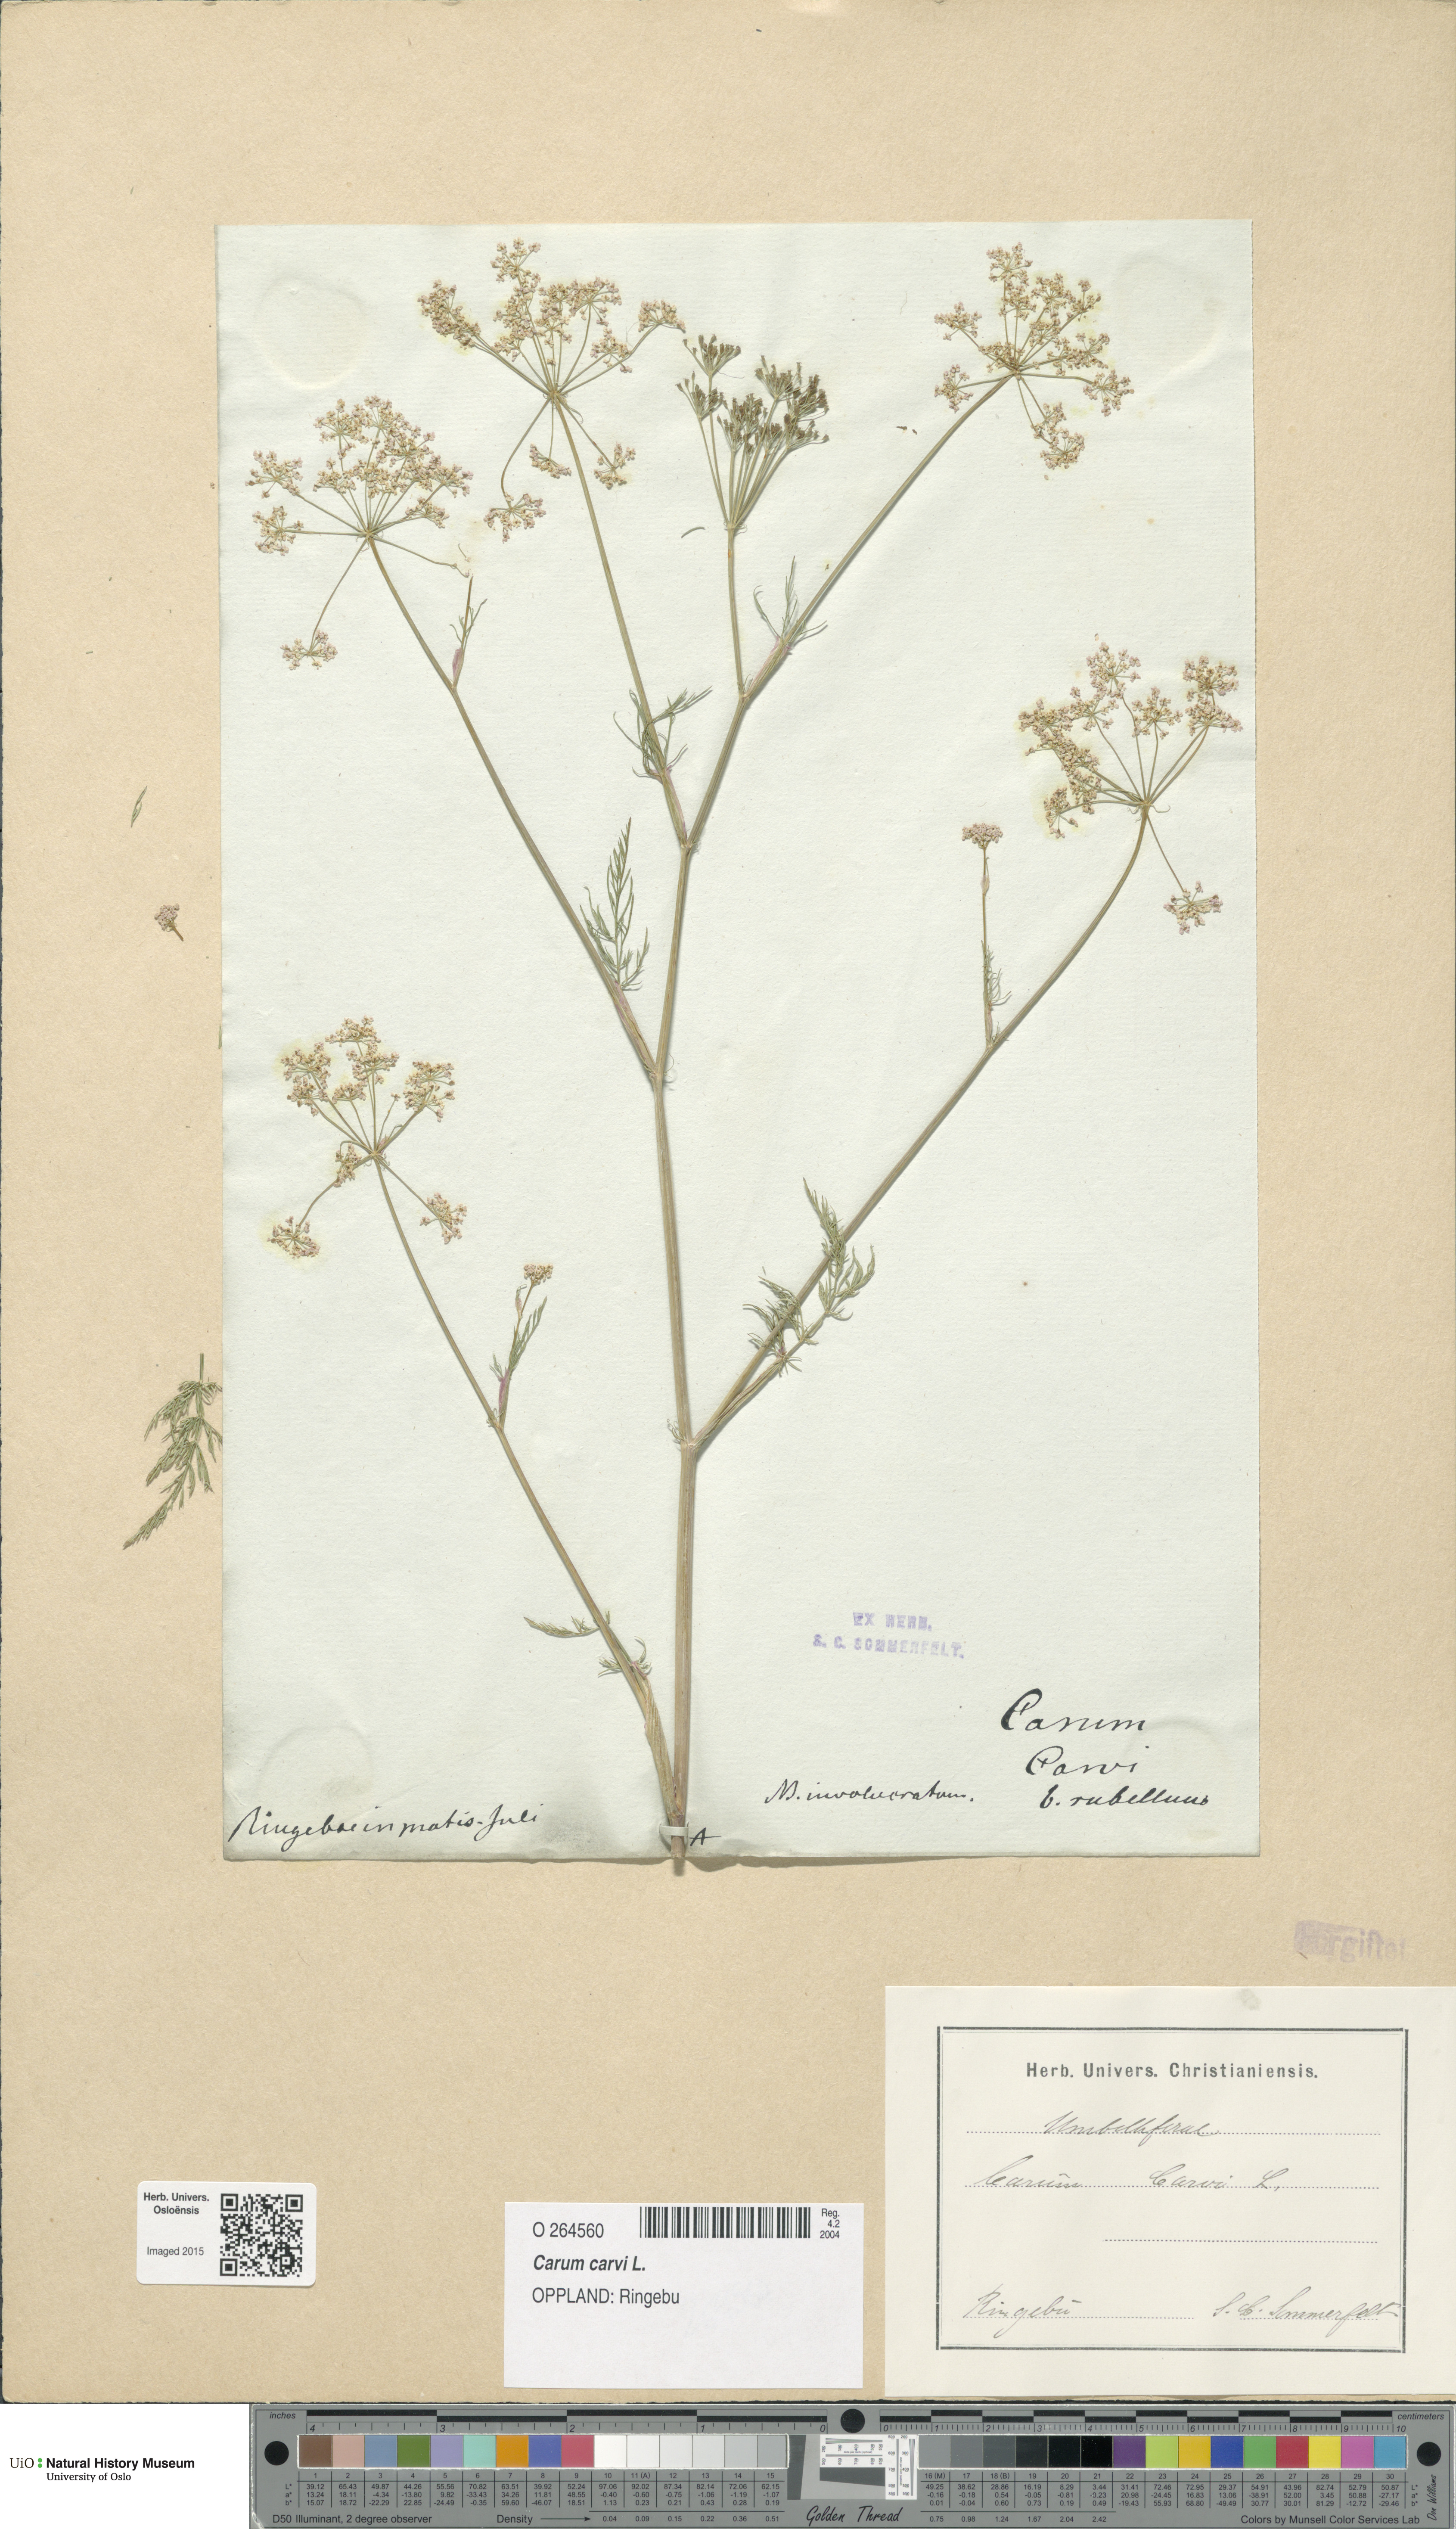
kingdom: Plantae
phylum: Tracheophyta
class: Magnoliopsida
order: Apiales
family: Apiaceae
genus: Carum
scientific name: Carum carvi
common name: Caraway
